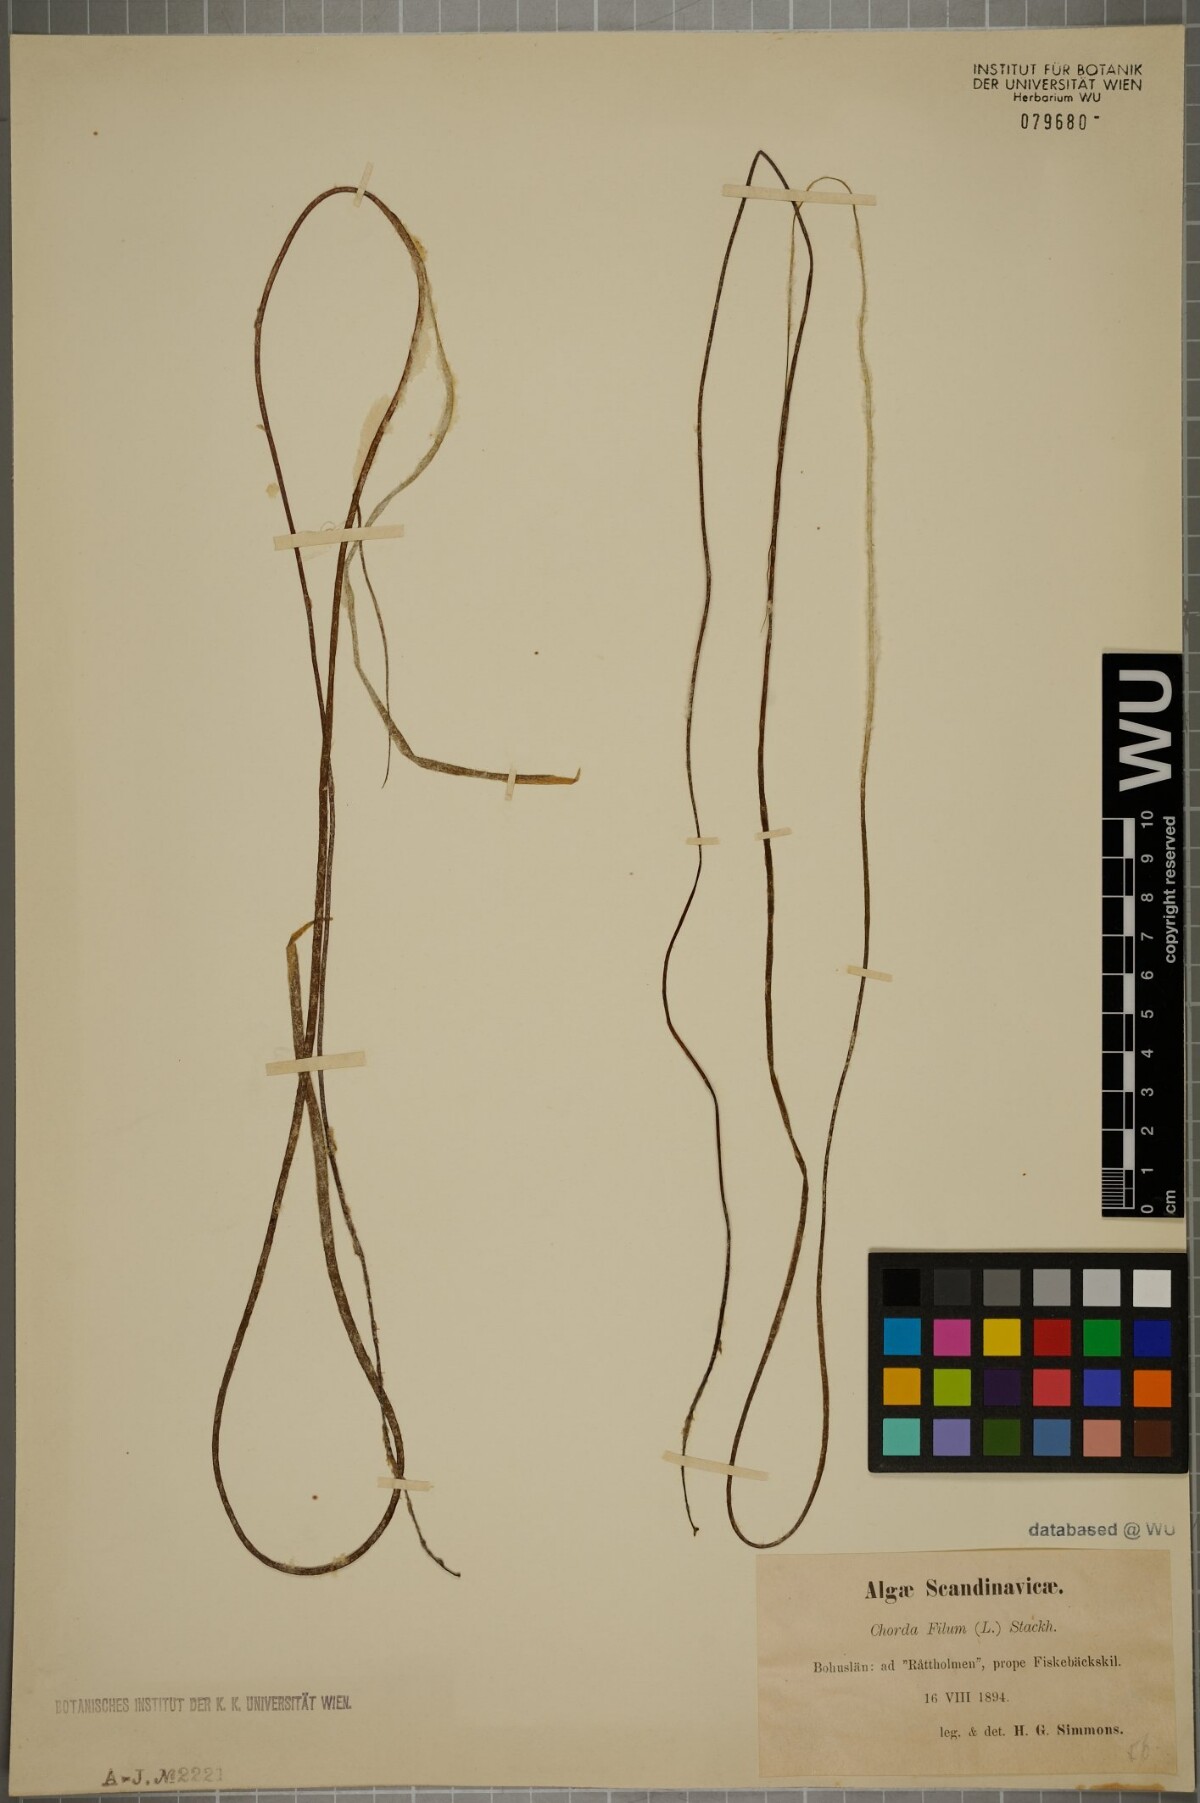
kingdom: Chromista
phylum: Ochrophyta
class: Phaeophyceae
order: Laminariales
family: Chordaceae
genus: Chorda
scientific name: Chorda filum
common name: Mermaid's tresses
